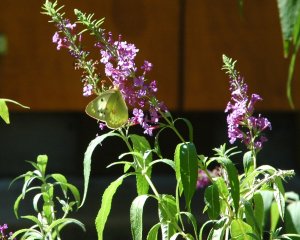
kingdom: Animalia
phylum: Arthropoda
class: Insecta
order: Lepidoptera
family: Pieridae
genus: Colias
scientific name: Colias
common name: Clouded Yellows
